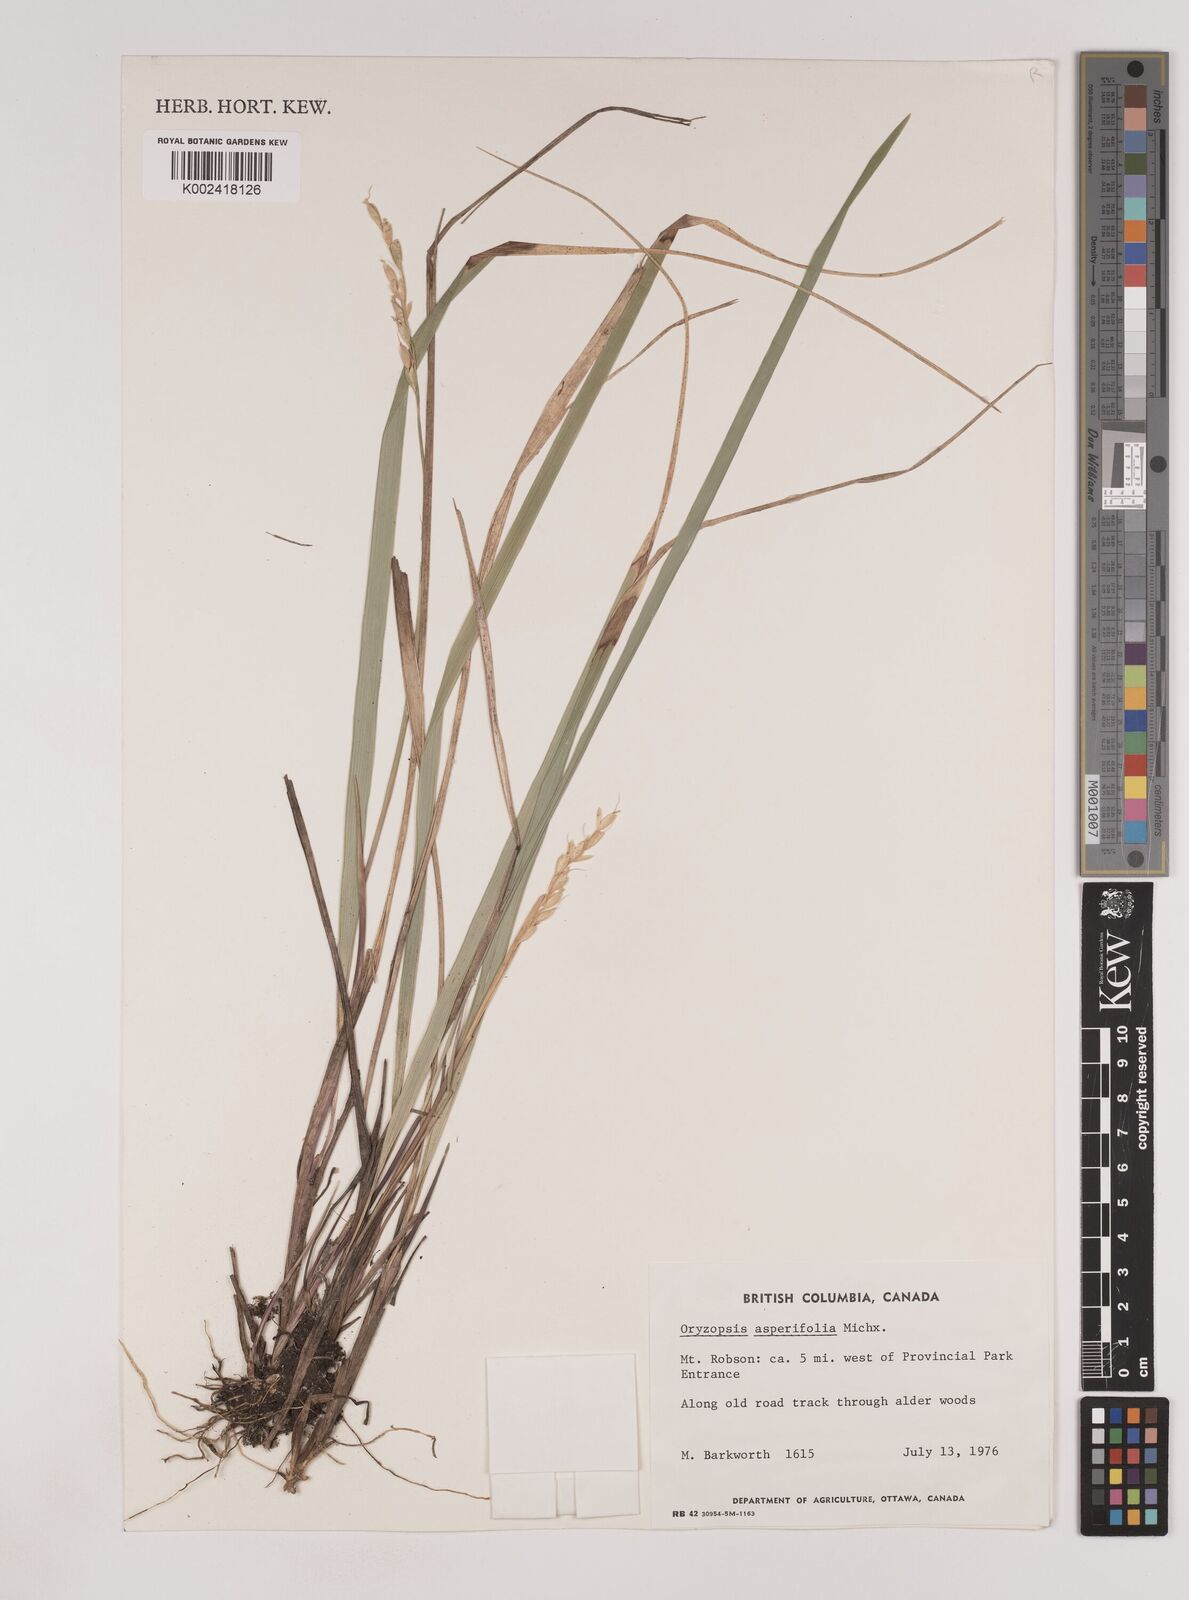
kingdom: Plantae
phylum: Tracheophyta
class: Liliopsida
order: Poales
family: Poaceae
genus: Oryzopsis
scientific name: Oryzopsis asperifolia
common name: Rough-leaved mountain rice
